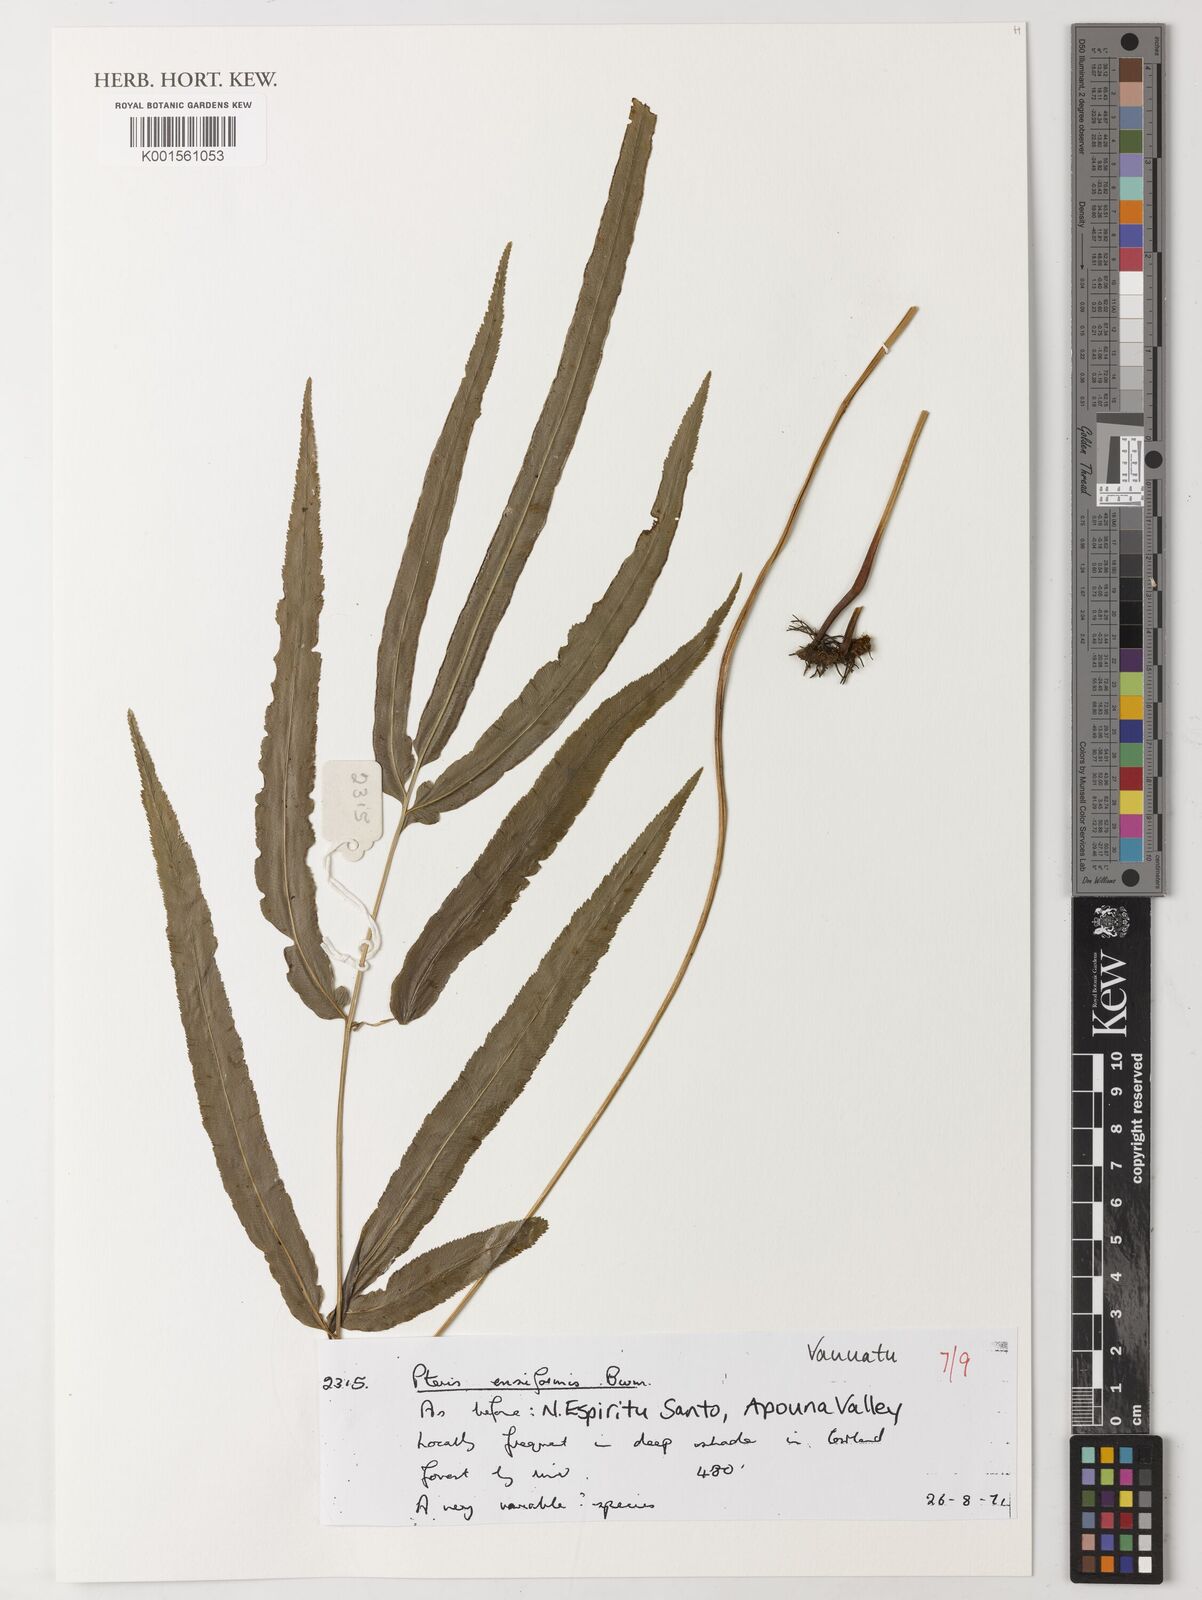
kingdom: Plantae
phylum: Tracheophyta
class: Polypodiopsida
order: Polypodiales
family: Pteridaceae
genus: Pteris
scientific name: Pteris ensiformis
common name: Sword brake
